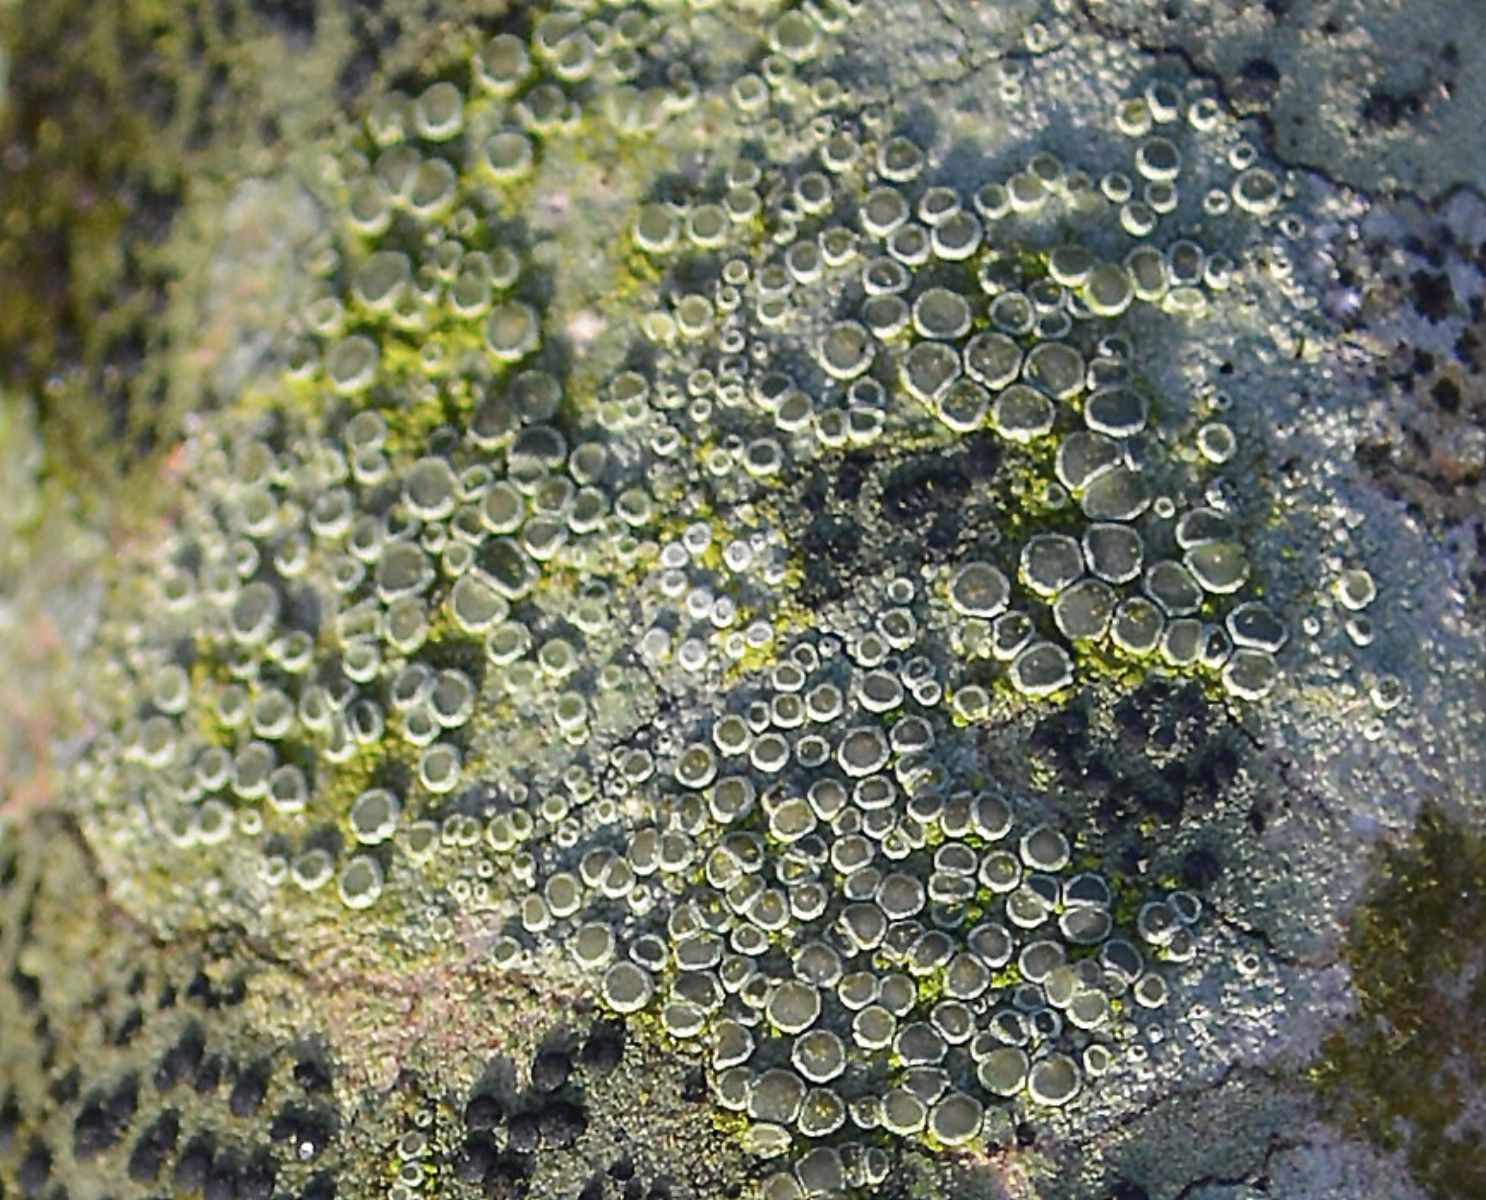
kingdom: Fungi
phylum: Ascomycota
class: Lecanoromycetes
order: Lecanorales
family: Lecanoraceae
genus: Lecanora
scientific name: Lecanora chlarotera
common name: brun kantskivelav
